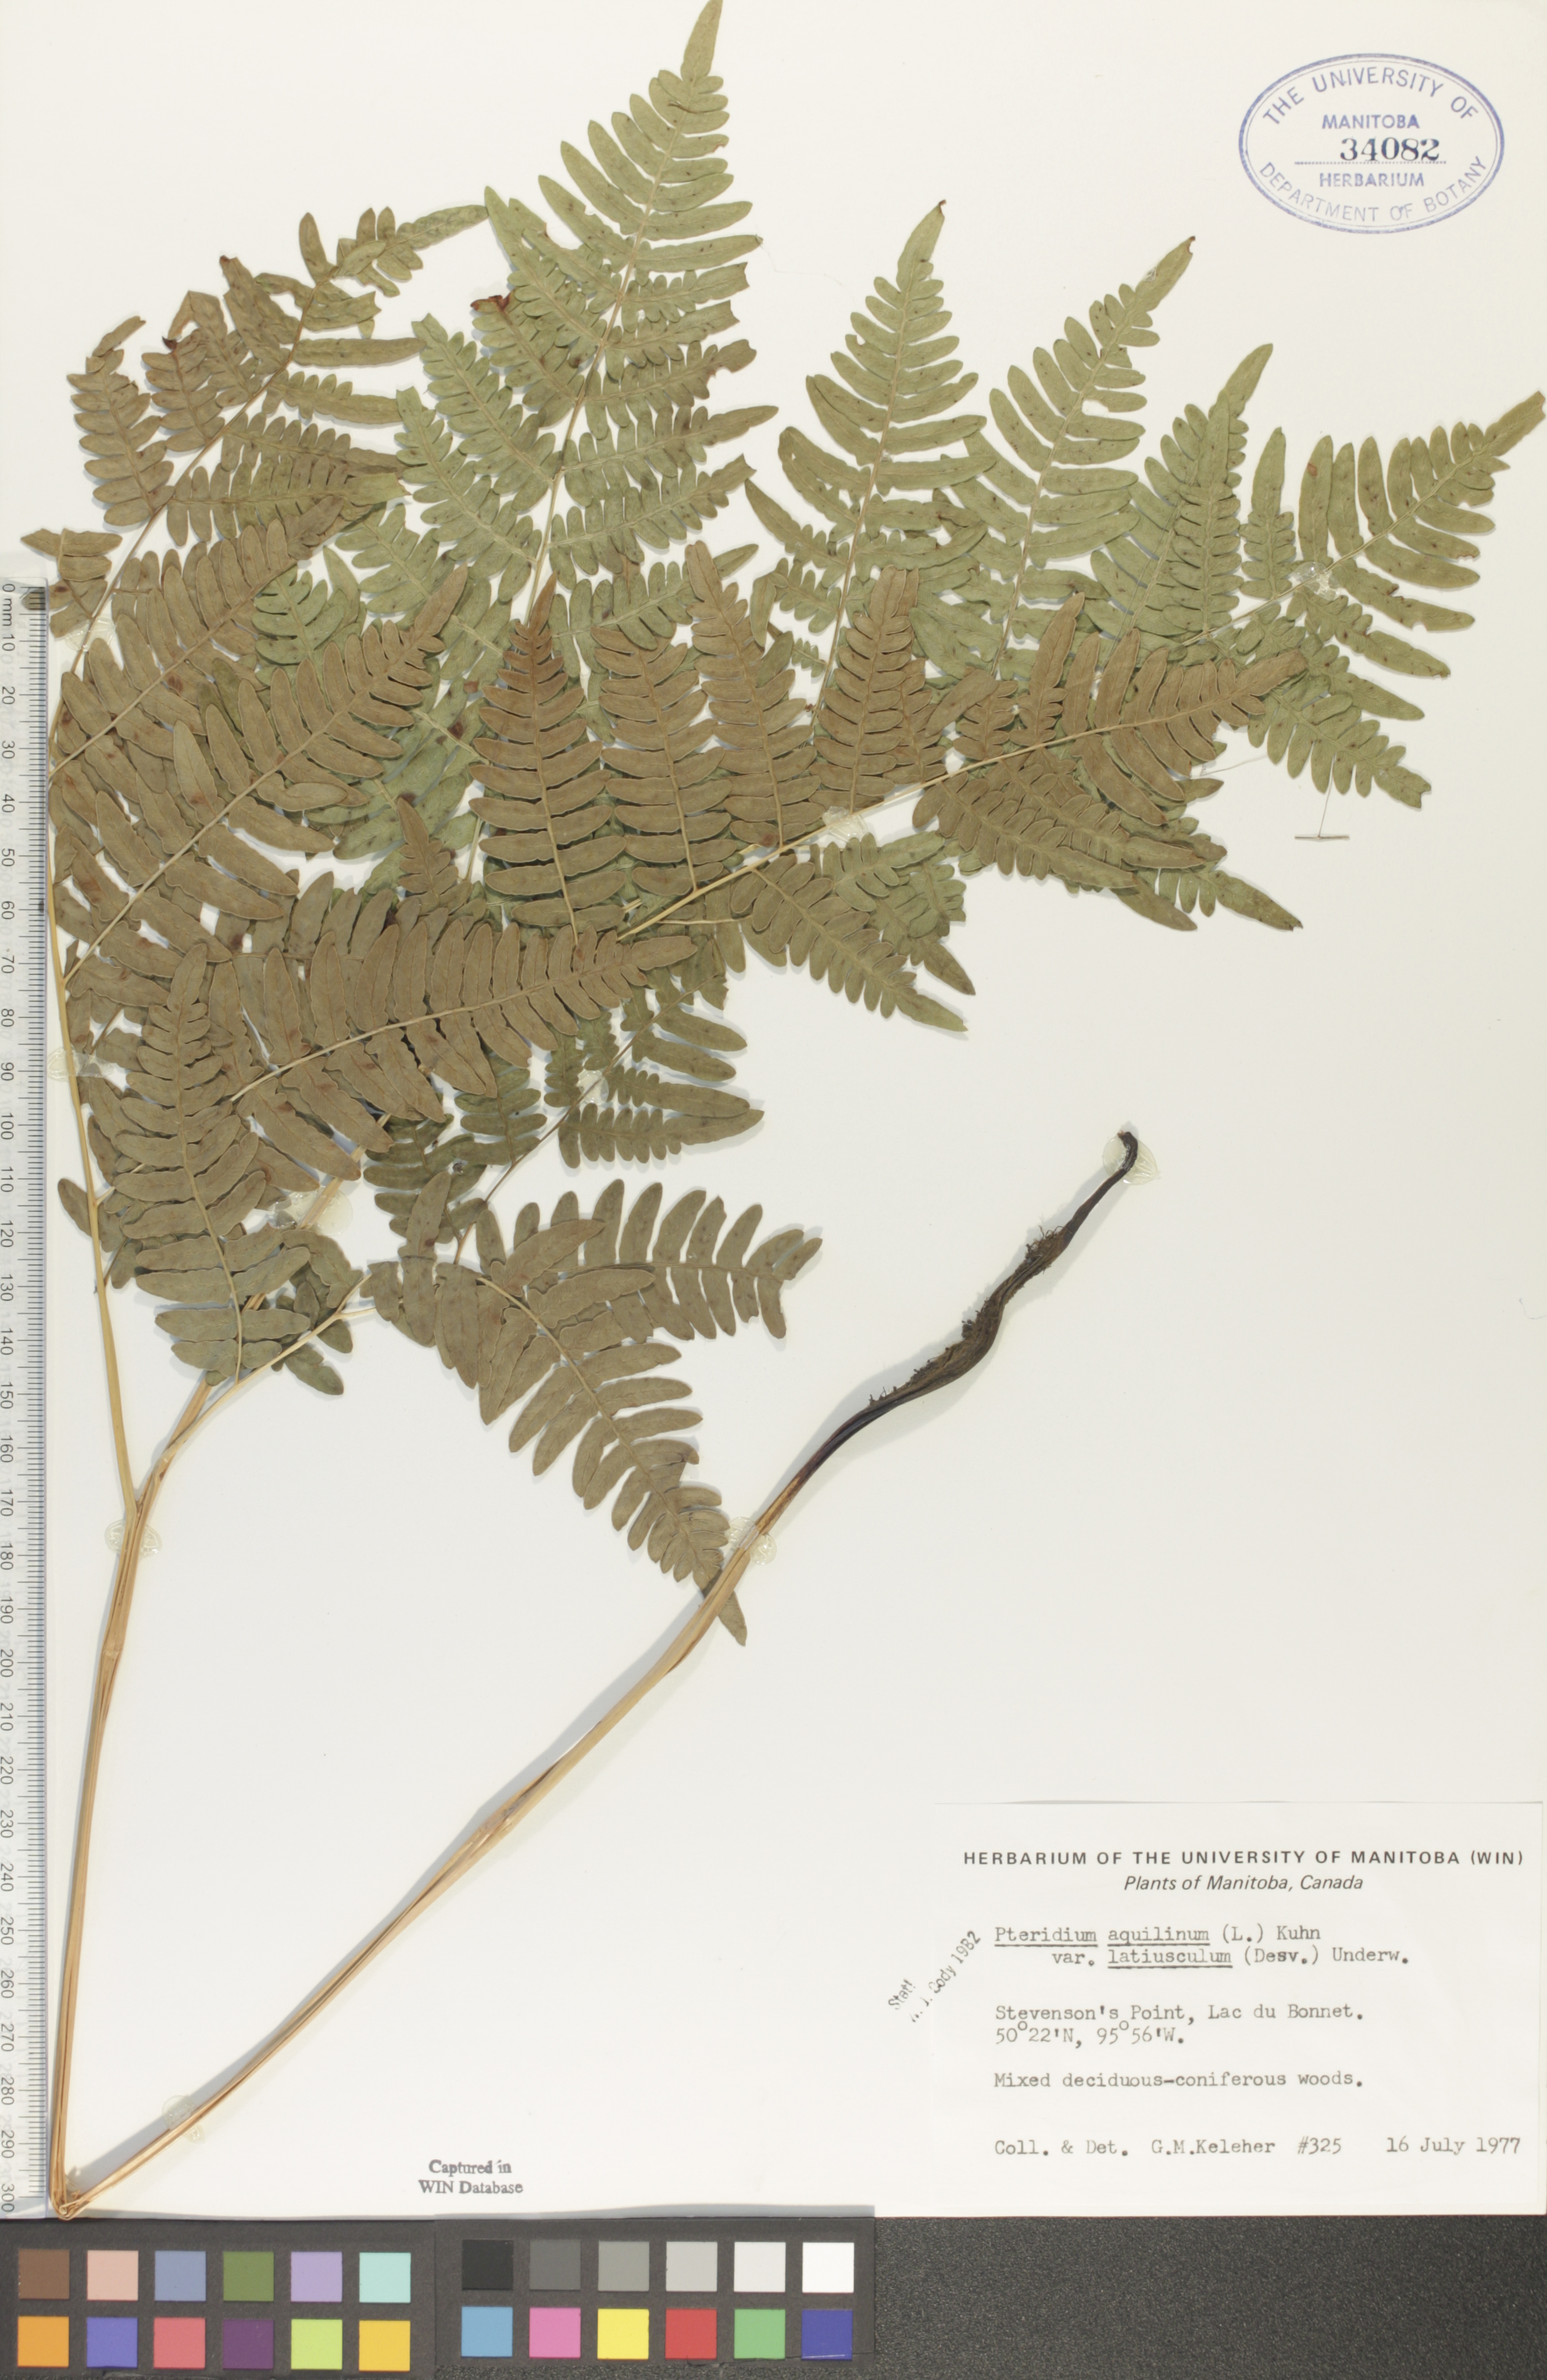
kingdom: Plantae
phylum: Tracheophyta
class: Polypodiopsida
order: Polypodiales
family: Dennstaedtiaceae
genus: Pteridium
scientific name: Pteridium aquilinum
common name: Bracken
